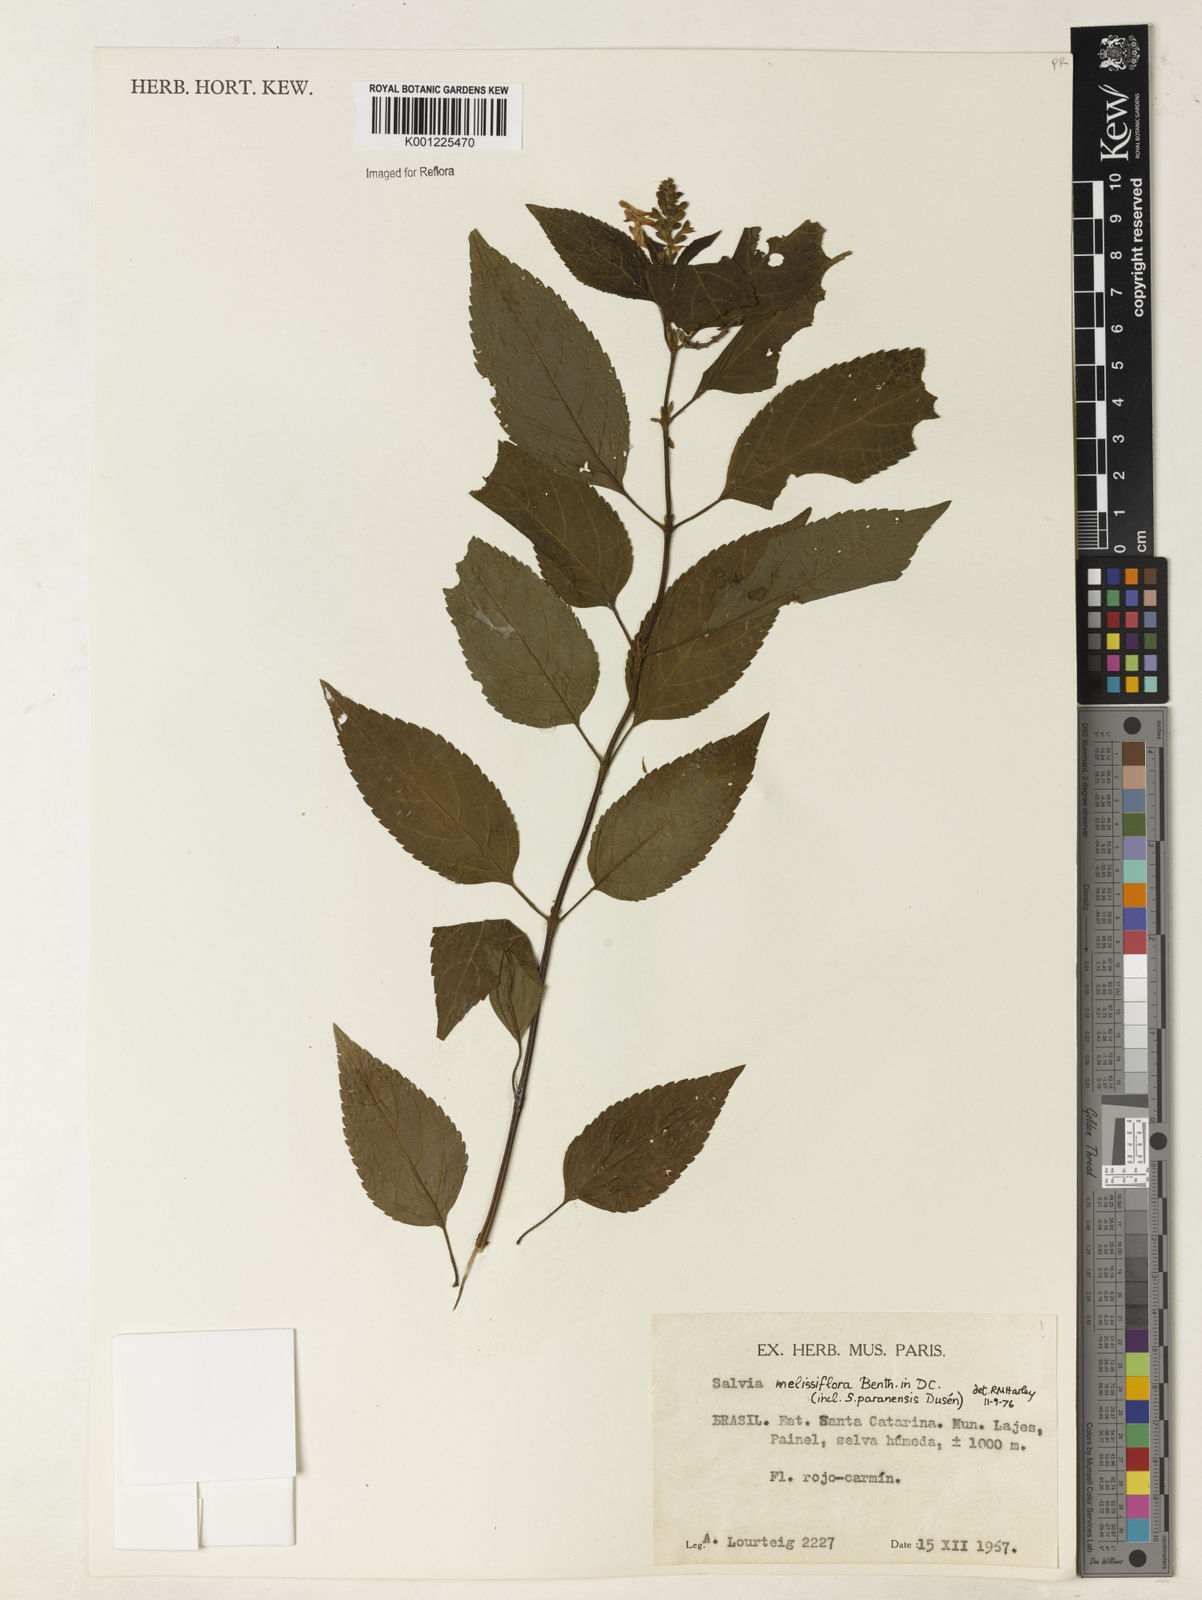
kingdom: Plantae
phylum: Tracheophyta
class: Magnoliopsida
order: Lamiales
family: Lamiaceae
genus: Salvia
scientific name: Salvia melissiflora
